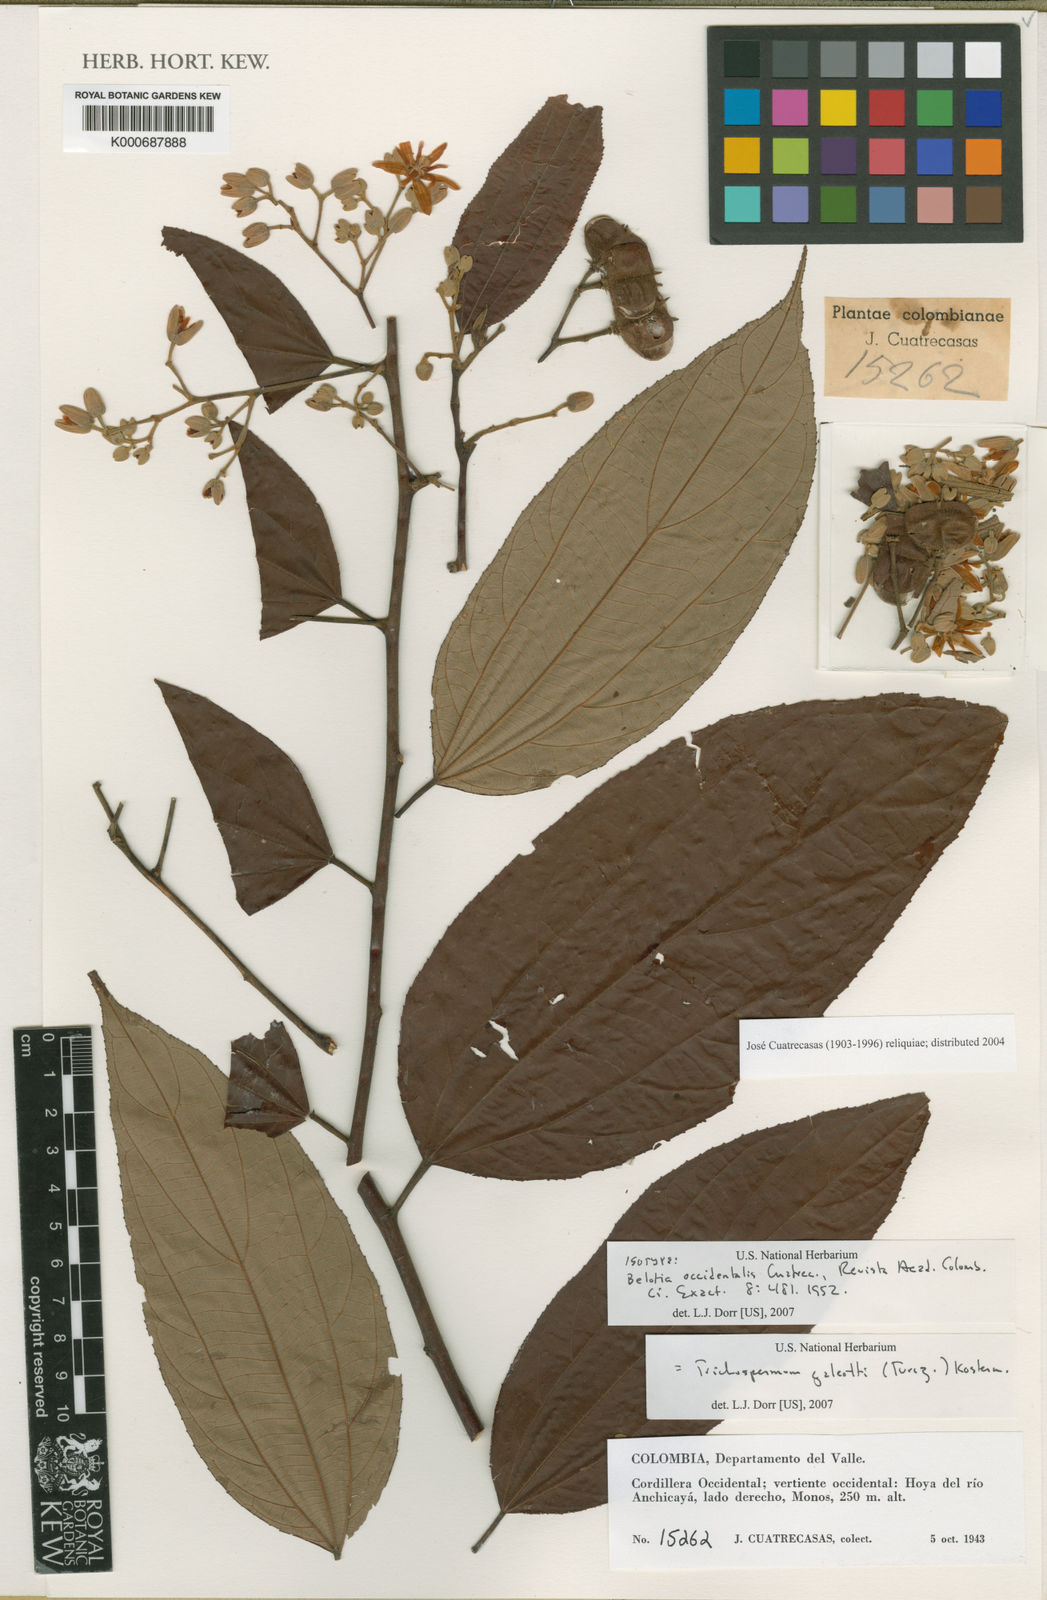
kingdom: Plantae
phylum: Tracheophyta
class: Magnoliopsida
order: Malvales
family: Malvaceae
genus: Trichospermum
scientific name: Trichospermum galeottii
